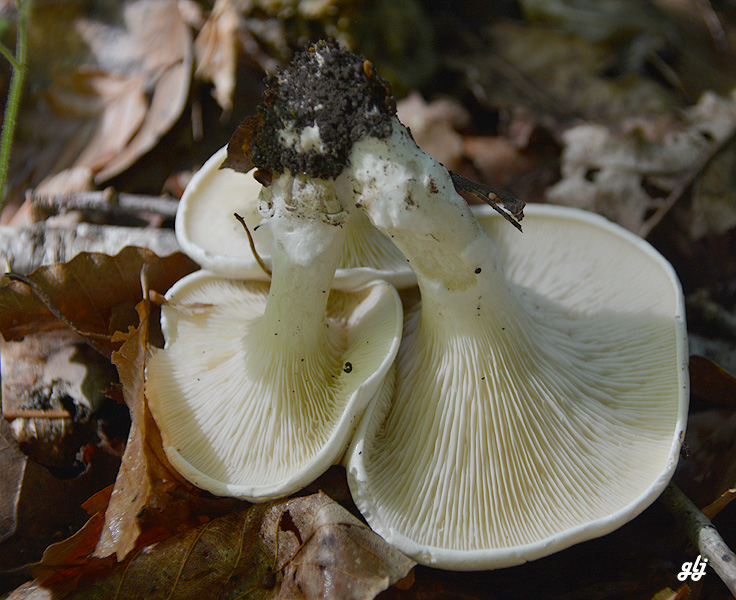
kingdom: Fungi
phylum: Basidiomycota
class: Agaricomycetes
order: Agaricales
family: Entolomataceae
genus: Clitopilus
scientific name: Clitopilus prunulus
